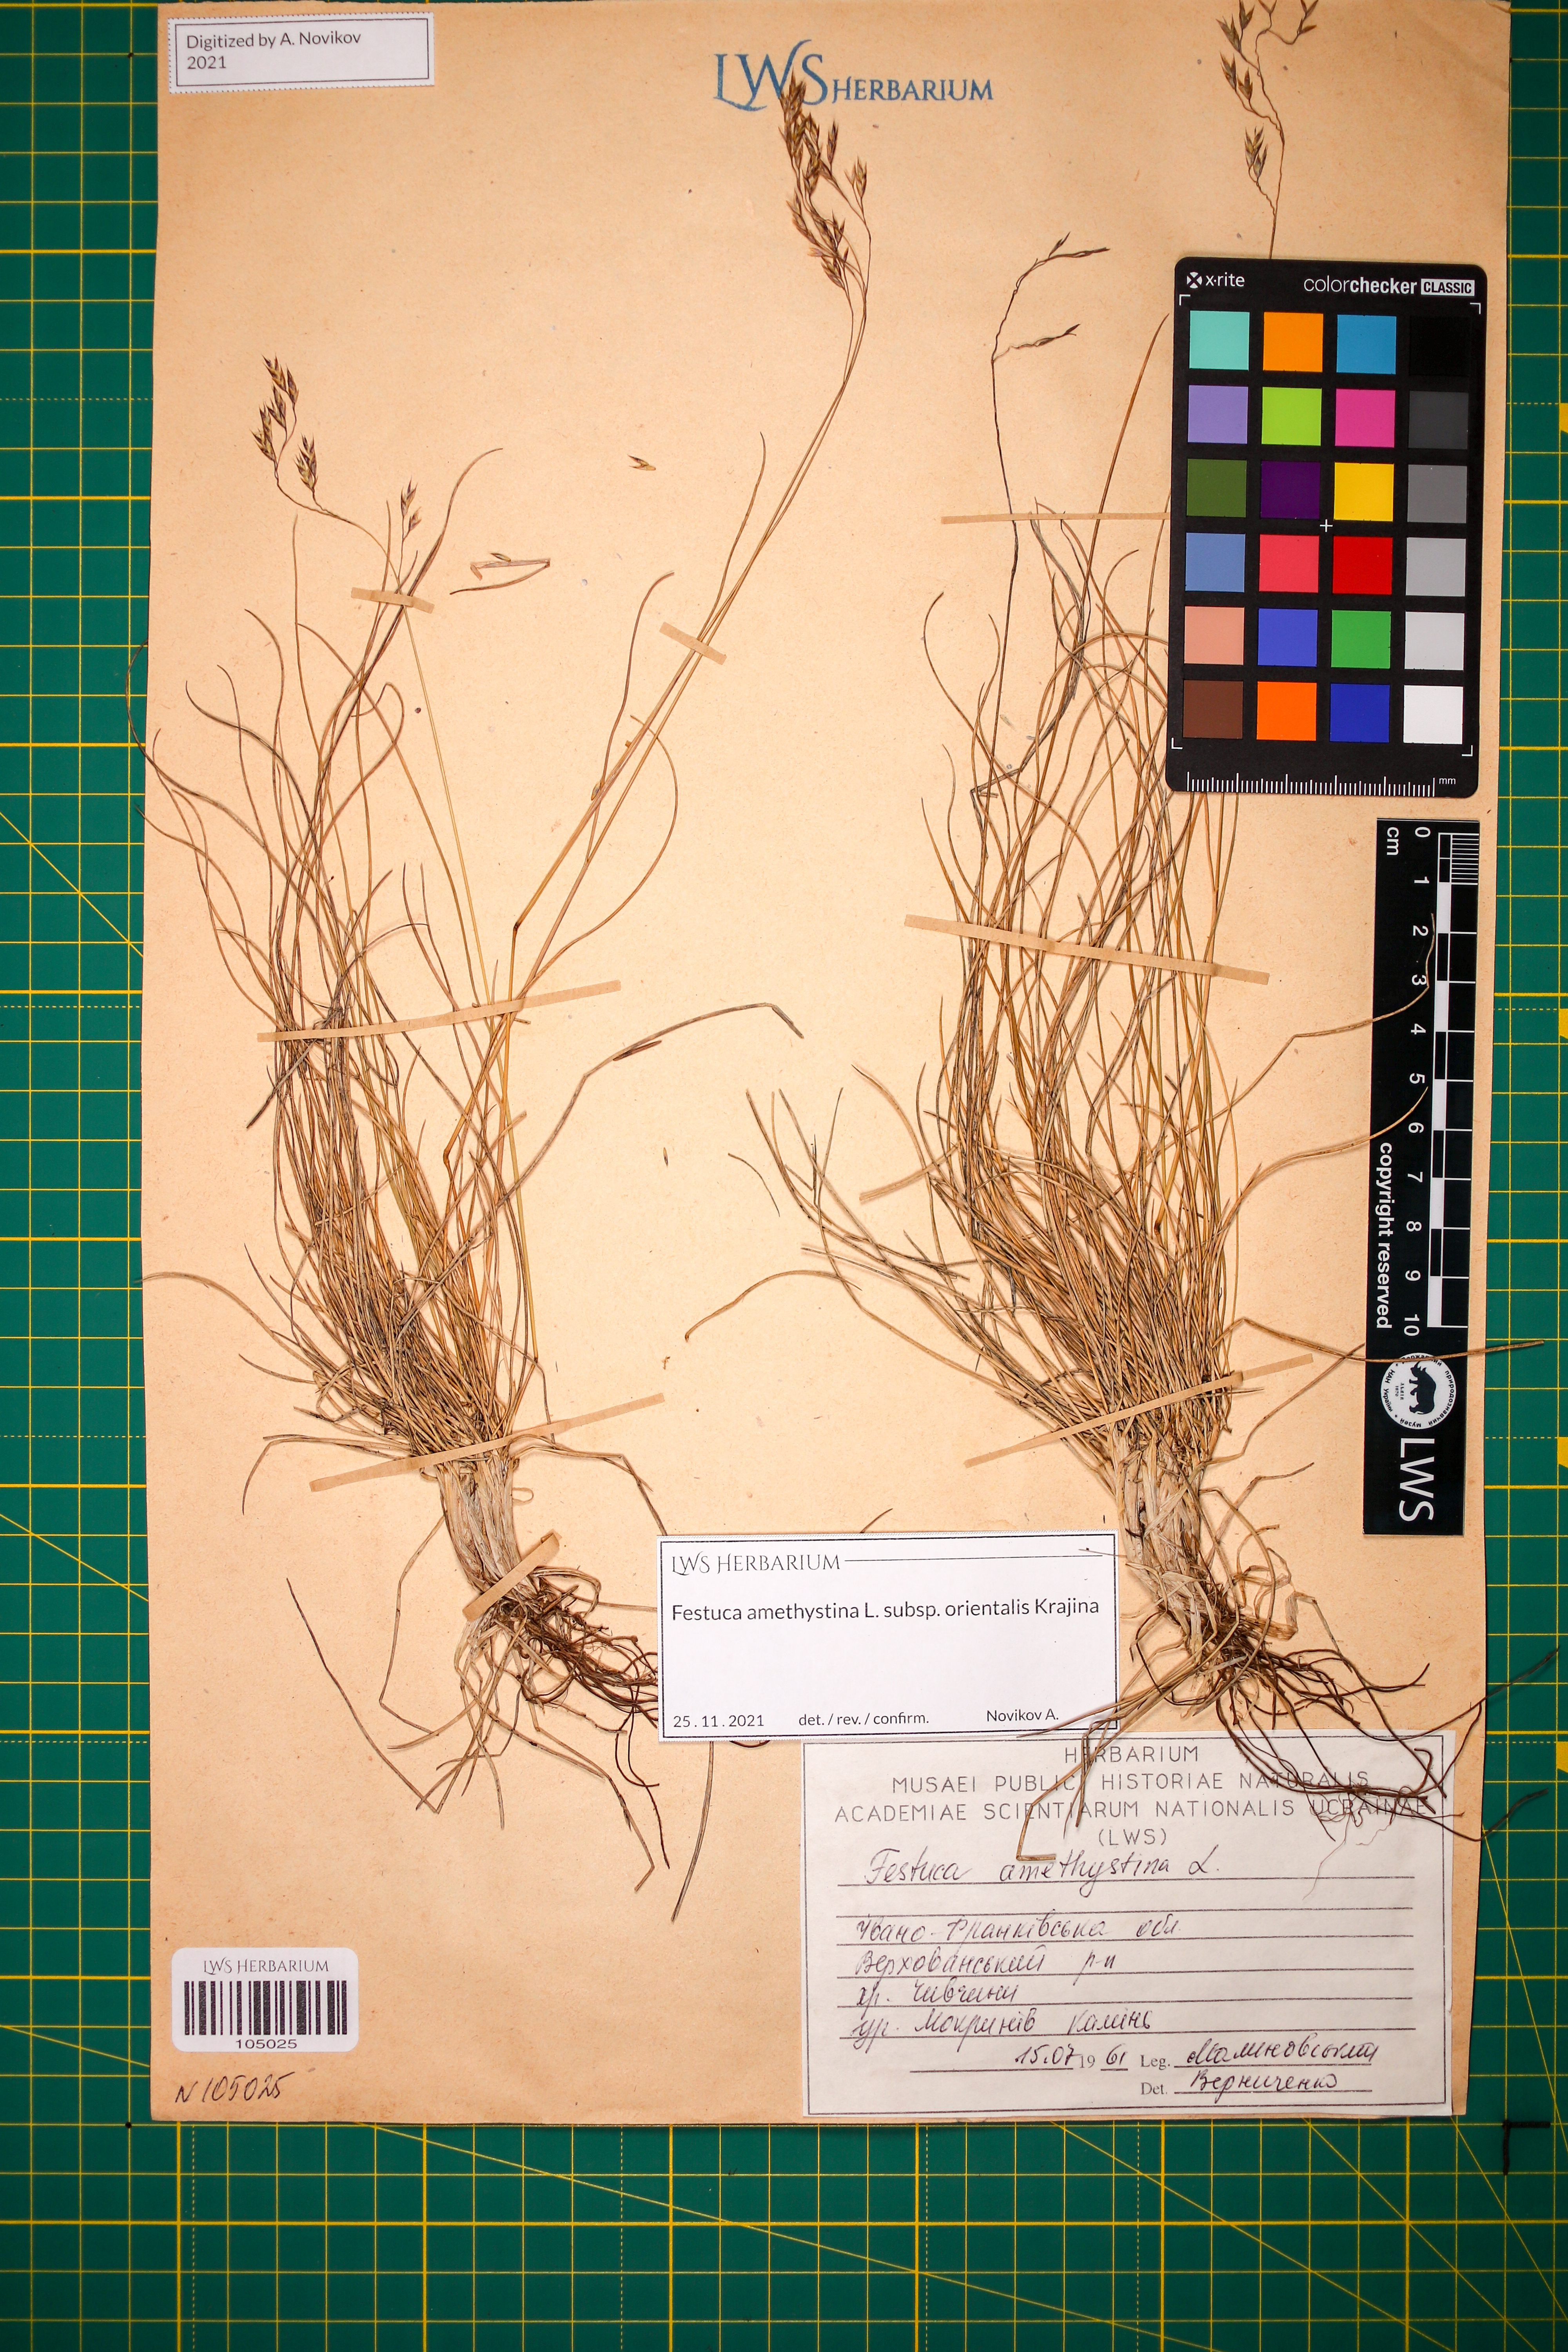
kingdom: Plantae
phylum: Tracheophyta
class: Liliopsida
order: Poales
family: Poaceae
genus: Festuca
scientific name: Festuca amethystina
